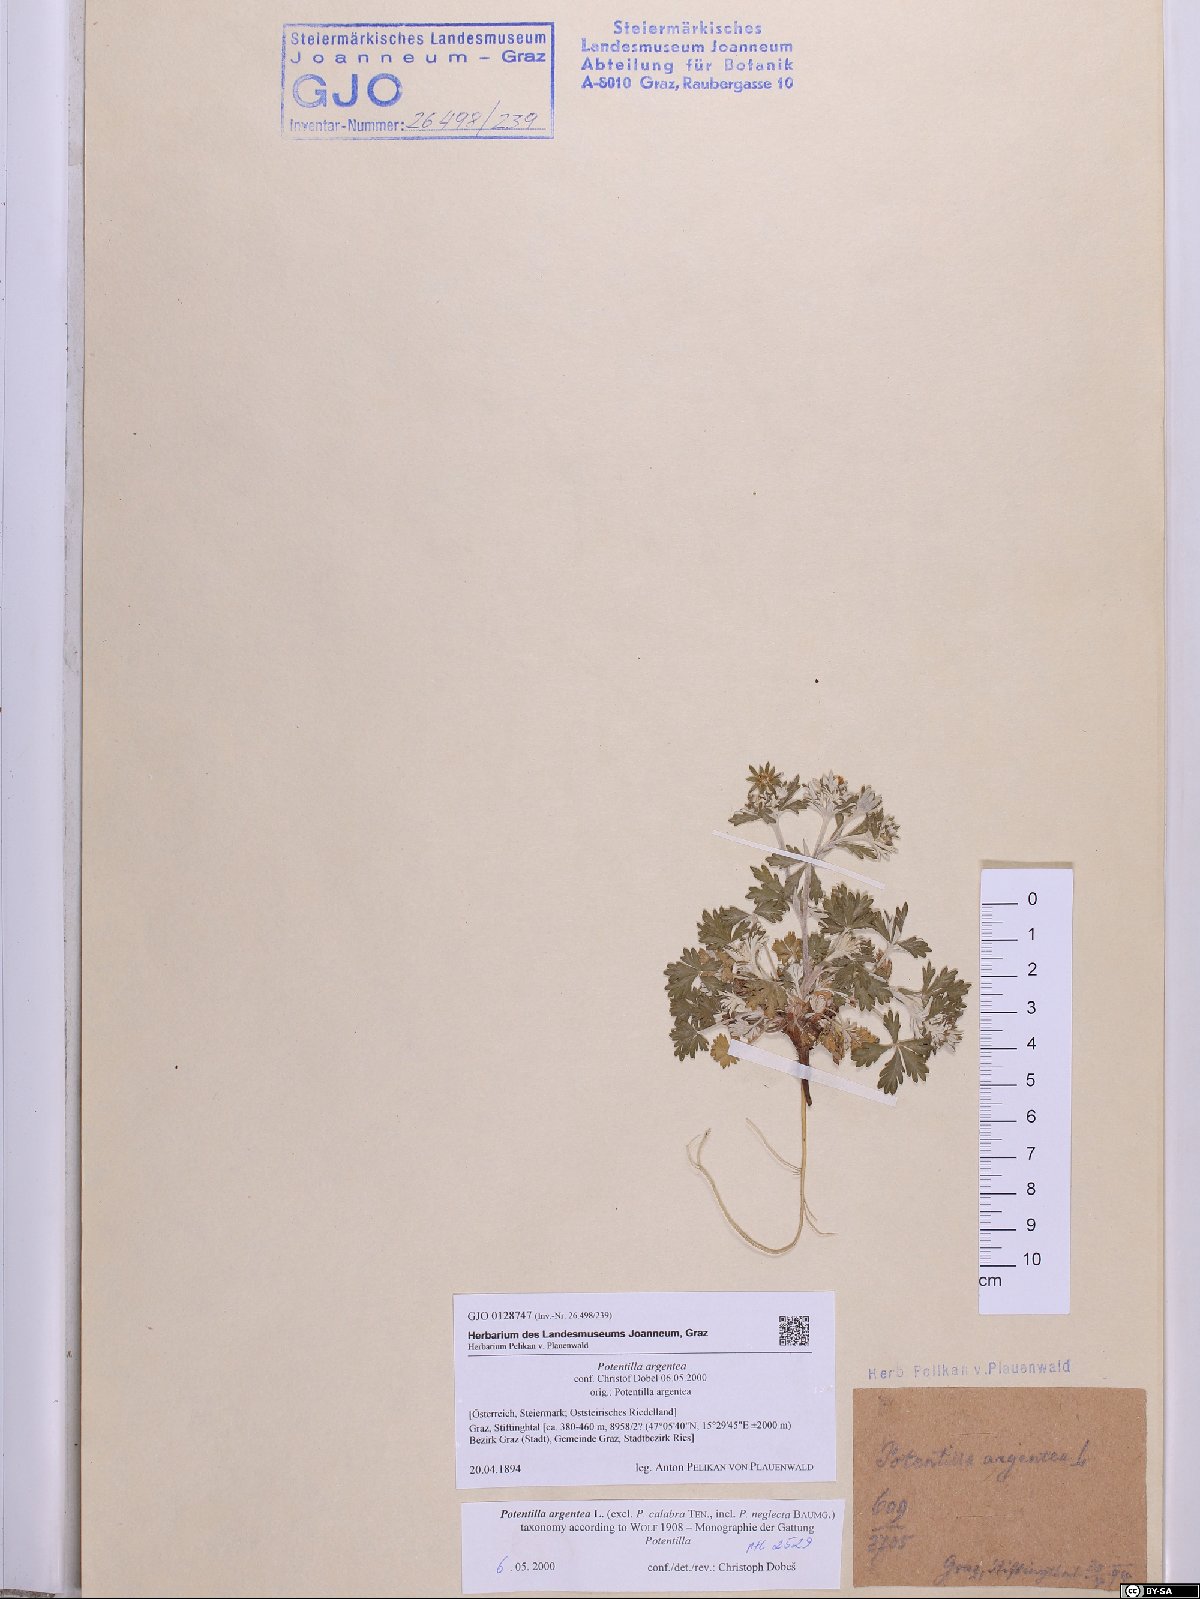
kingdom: Plantae
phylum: Tracheophyta
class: Magnoliopsida
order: Rosales
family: Rosaceae
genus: Potentilla
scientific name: Potentilla argentea
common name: Hoary cinquefoil
